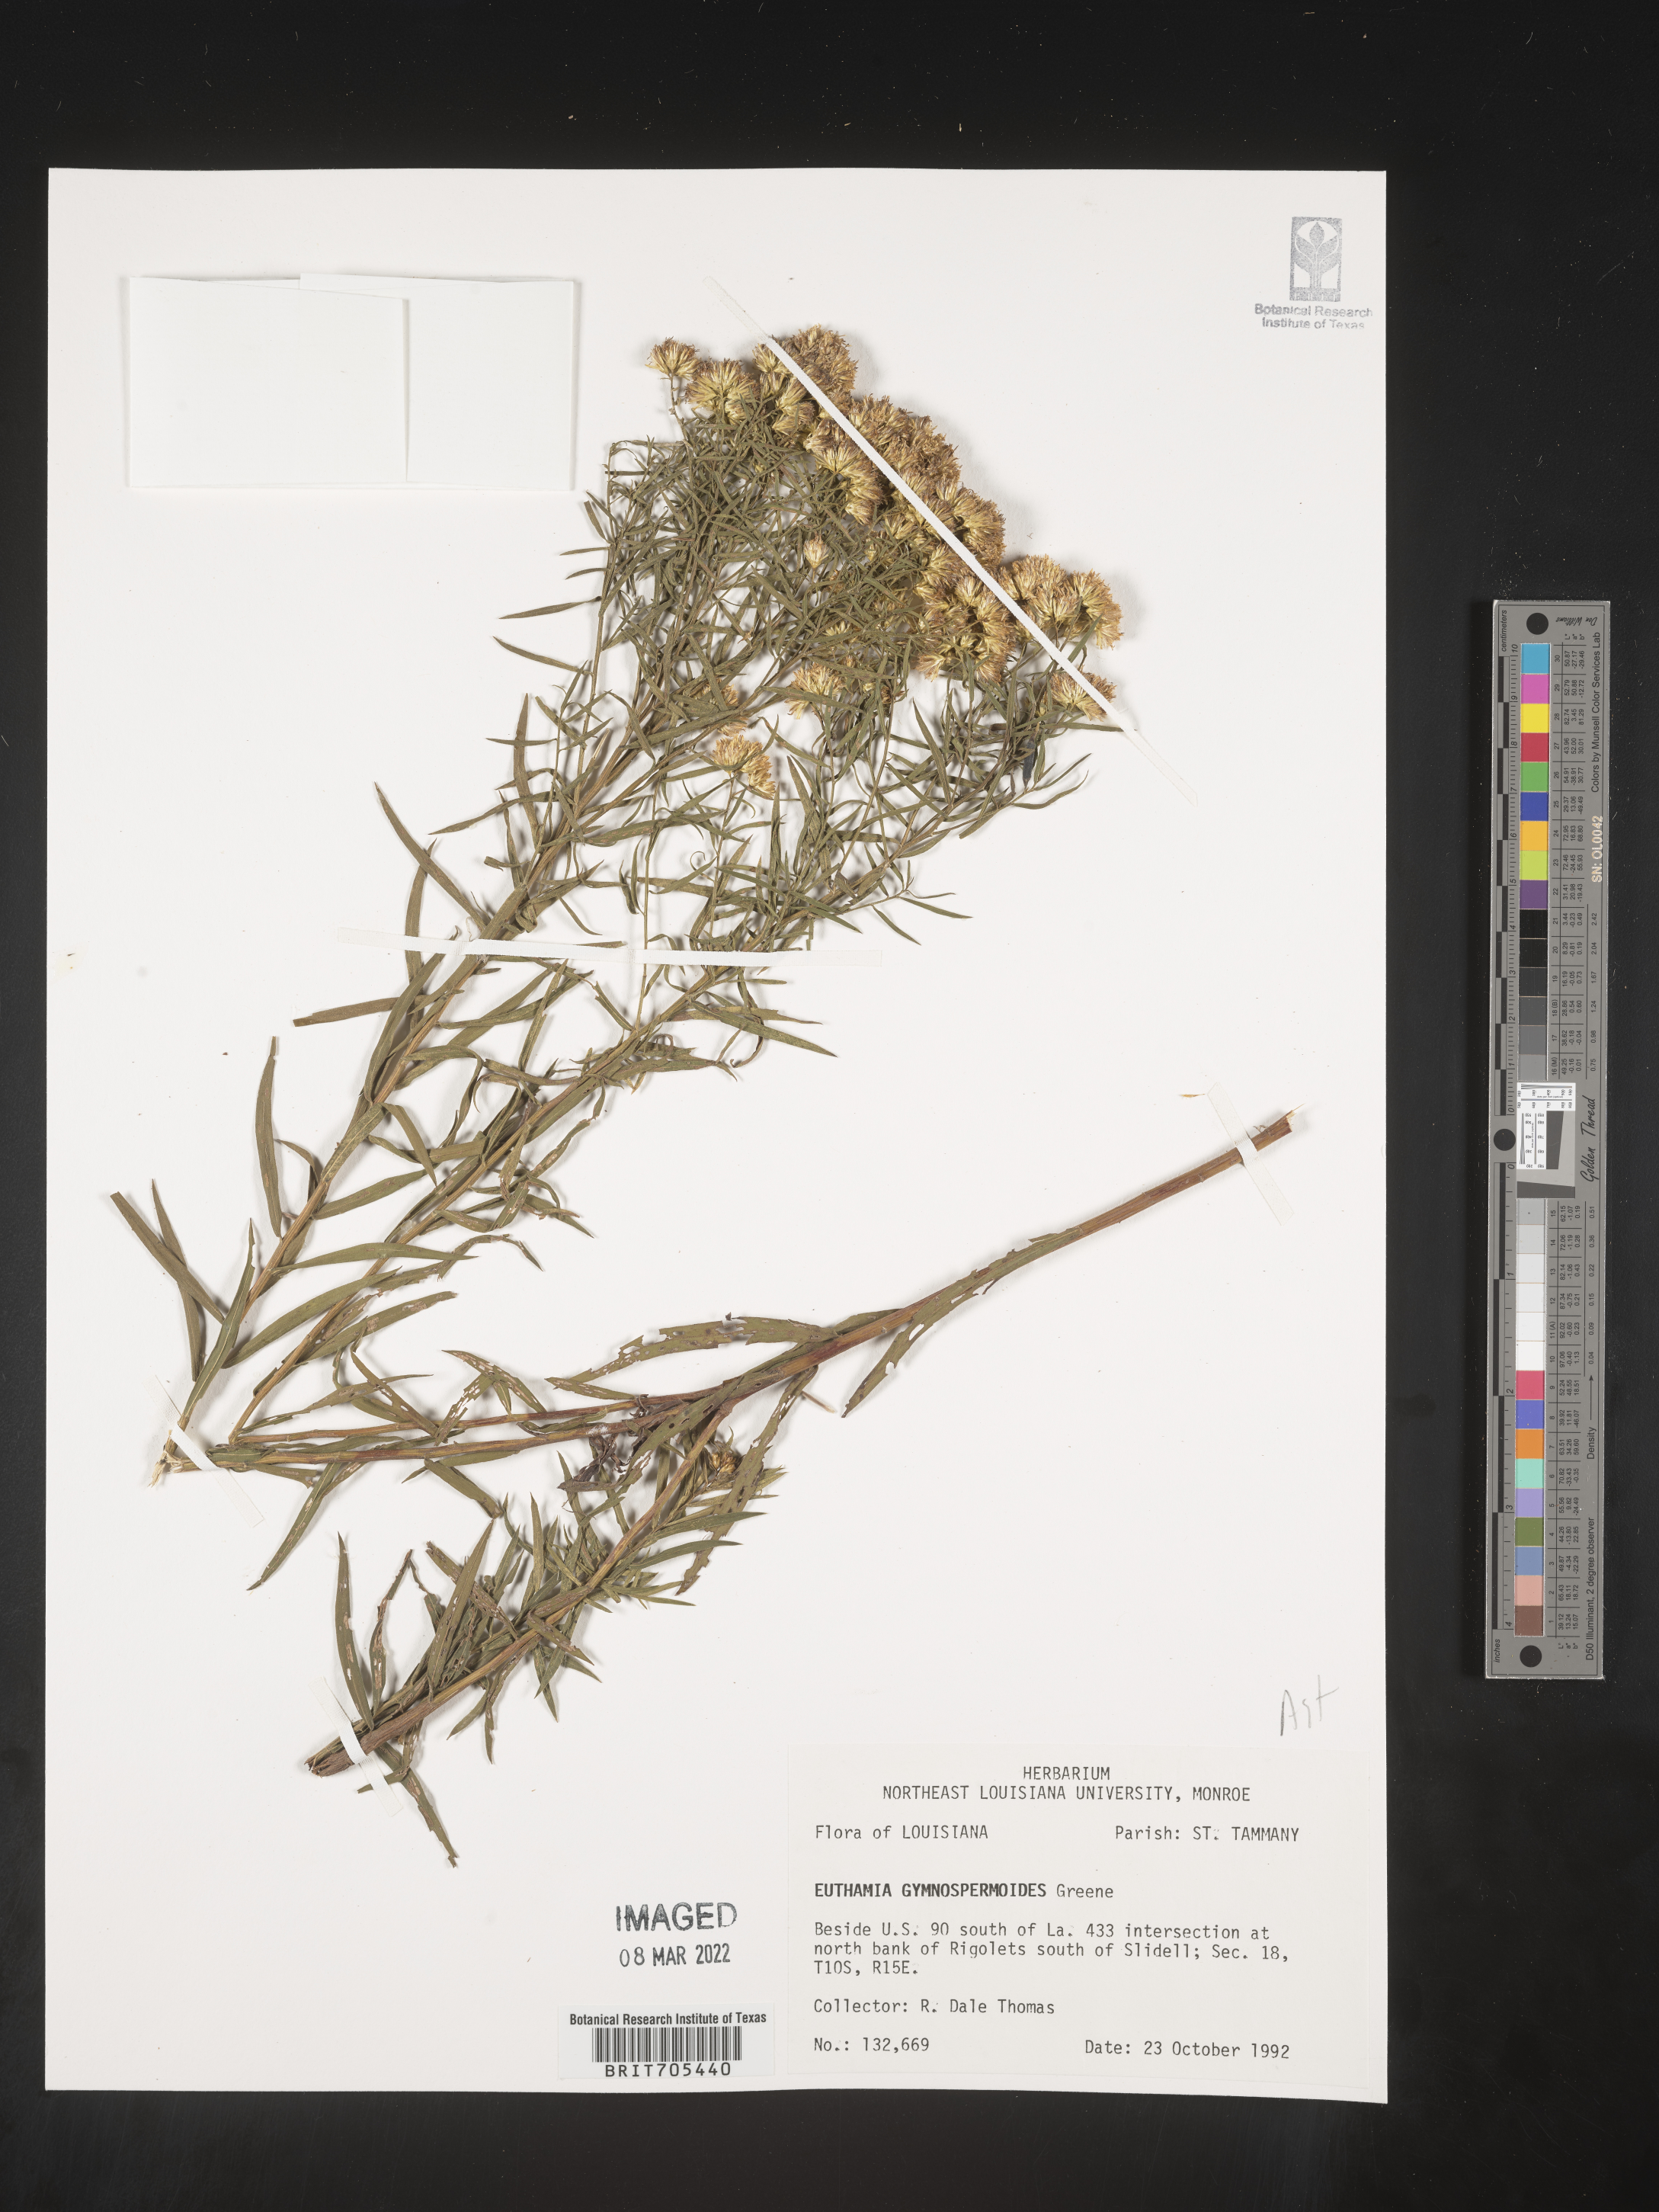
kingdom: Plantae
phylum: Tracheophyta
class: Magnoliopsida
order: Asterales
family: Asteraceae
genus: Euthamia
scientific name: Euthamia
